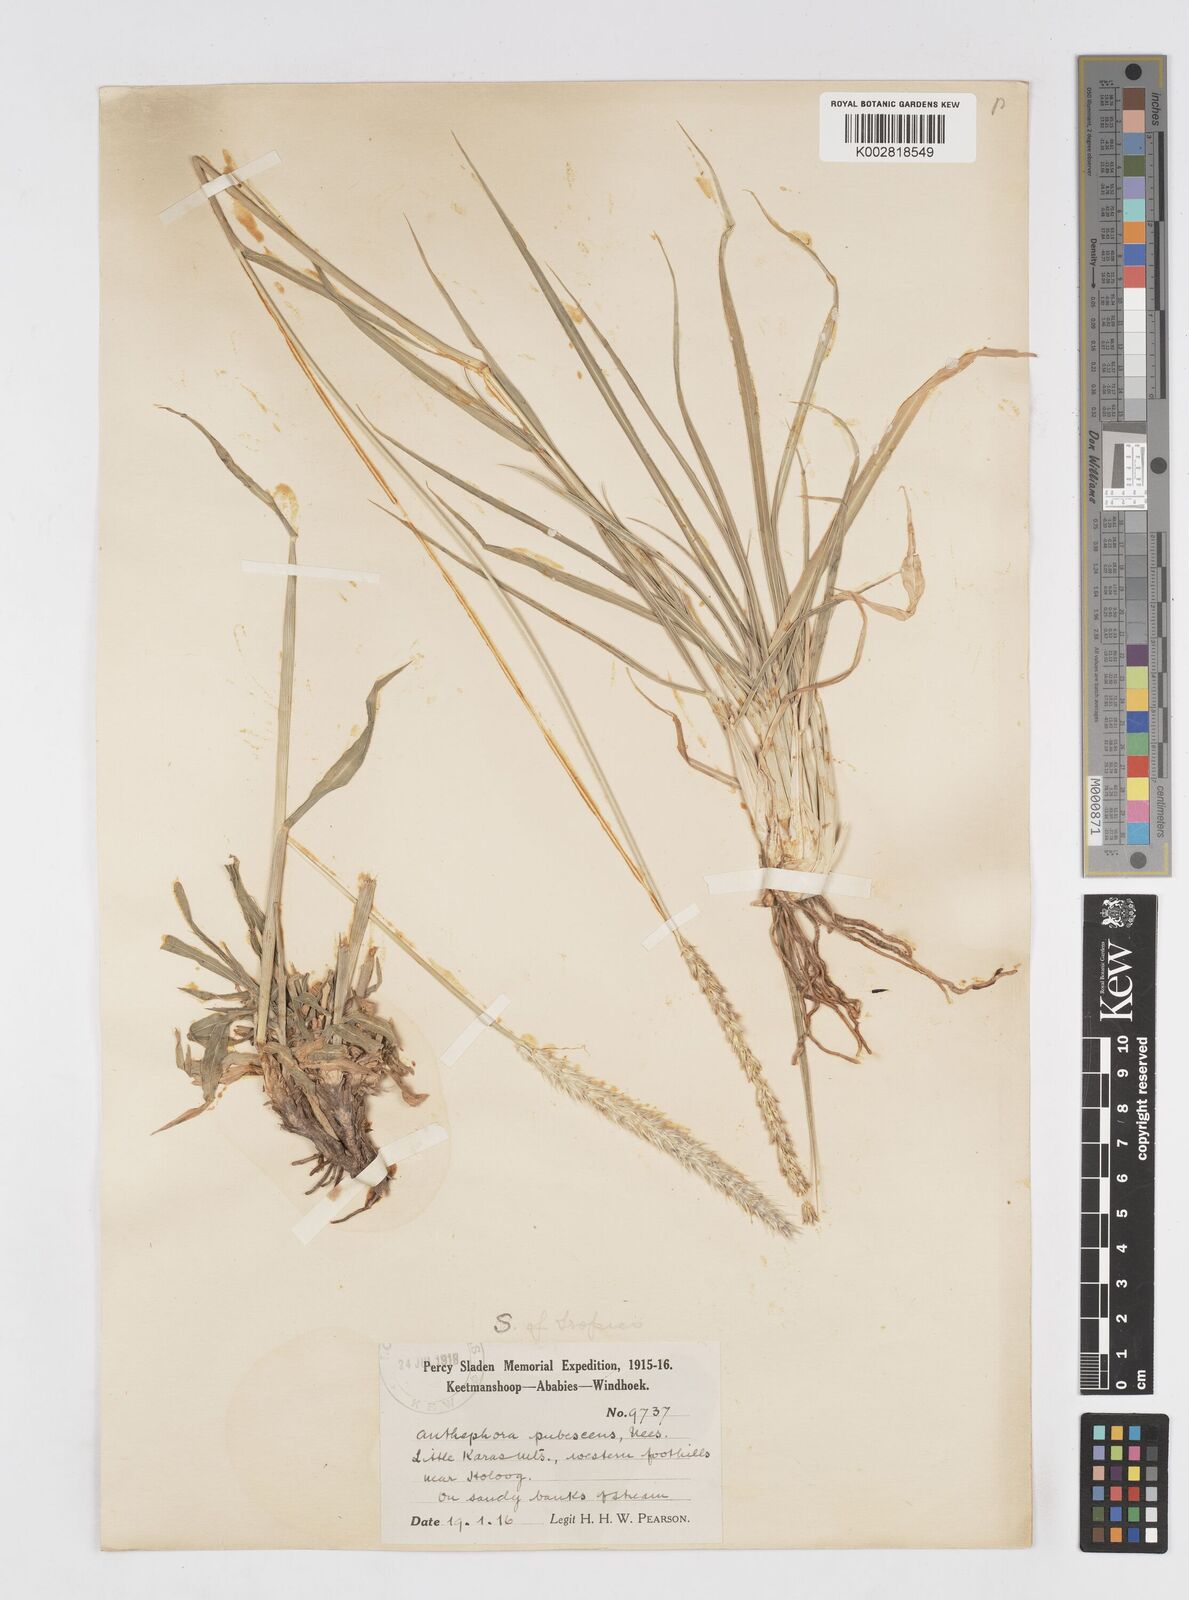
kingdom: Plantae
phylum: Tracheophyta
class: Liliopsida
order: Poales
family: Poaceae
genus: Anthephora
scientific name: Anthephora pubescens
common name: Wool grass
